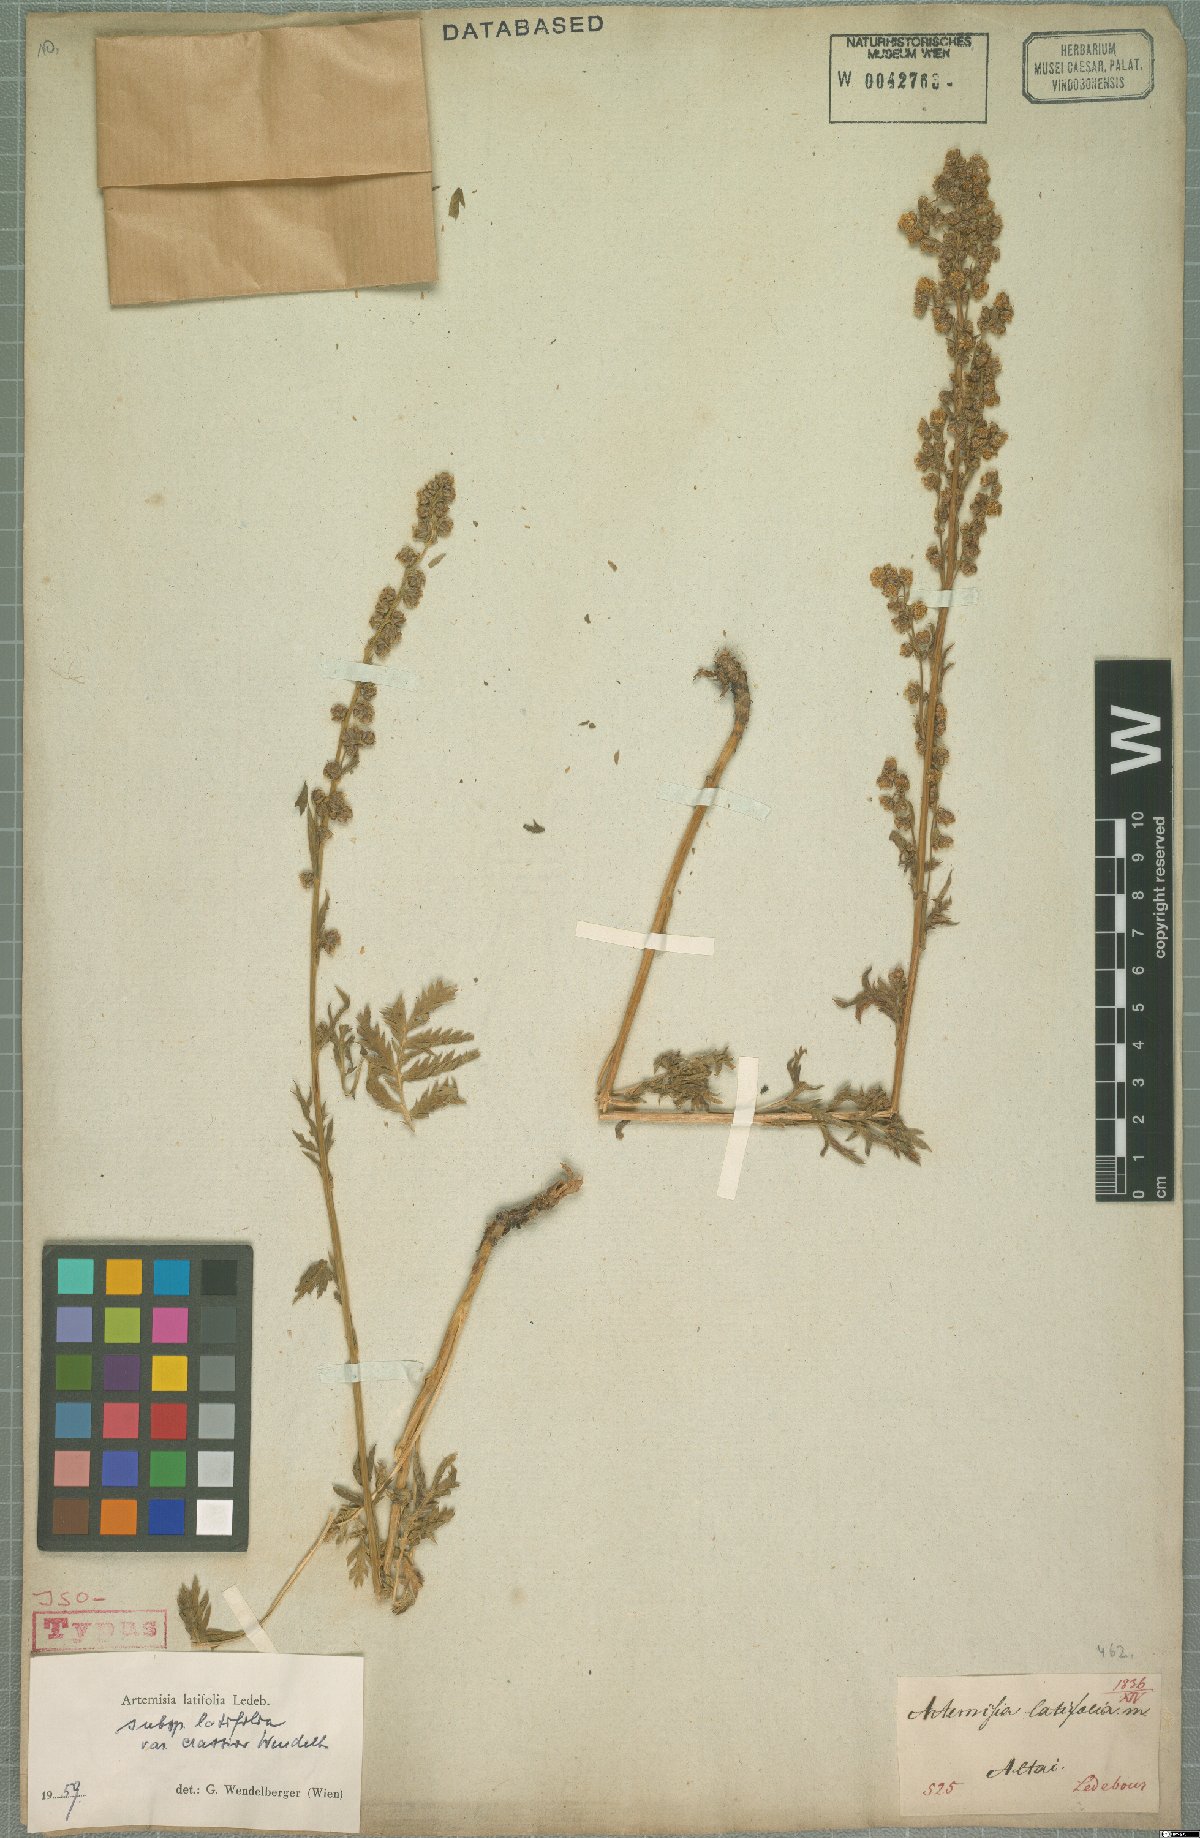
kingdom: Plantae
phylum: Tracheophyta
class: Magnoliopsida
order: Asterales
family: Asteraceae
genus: Artemisia
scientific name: Artemisia latifolia
